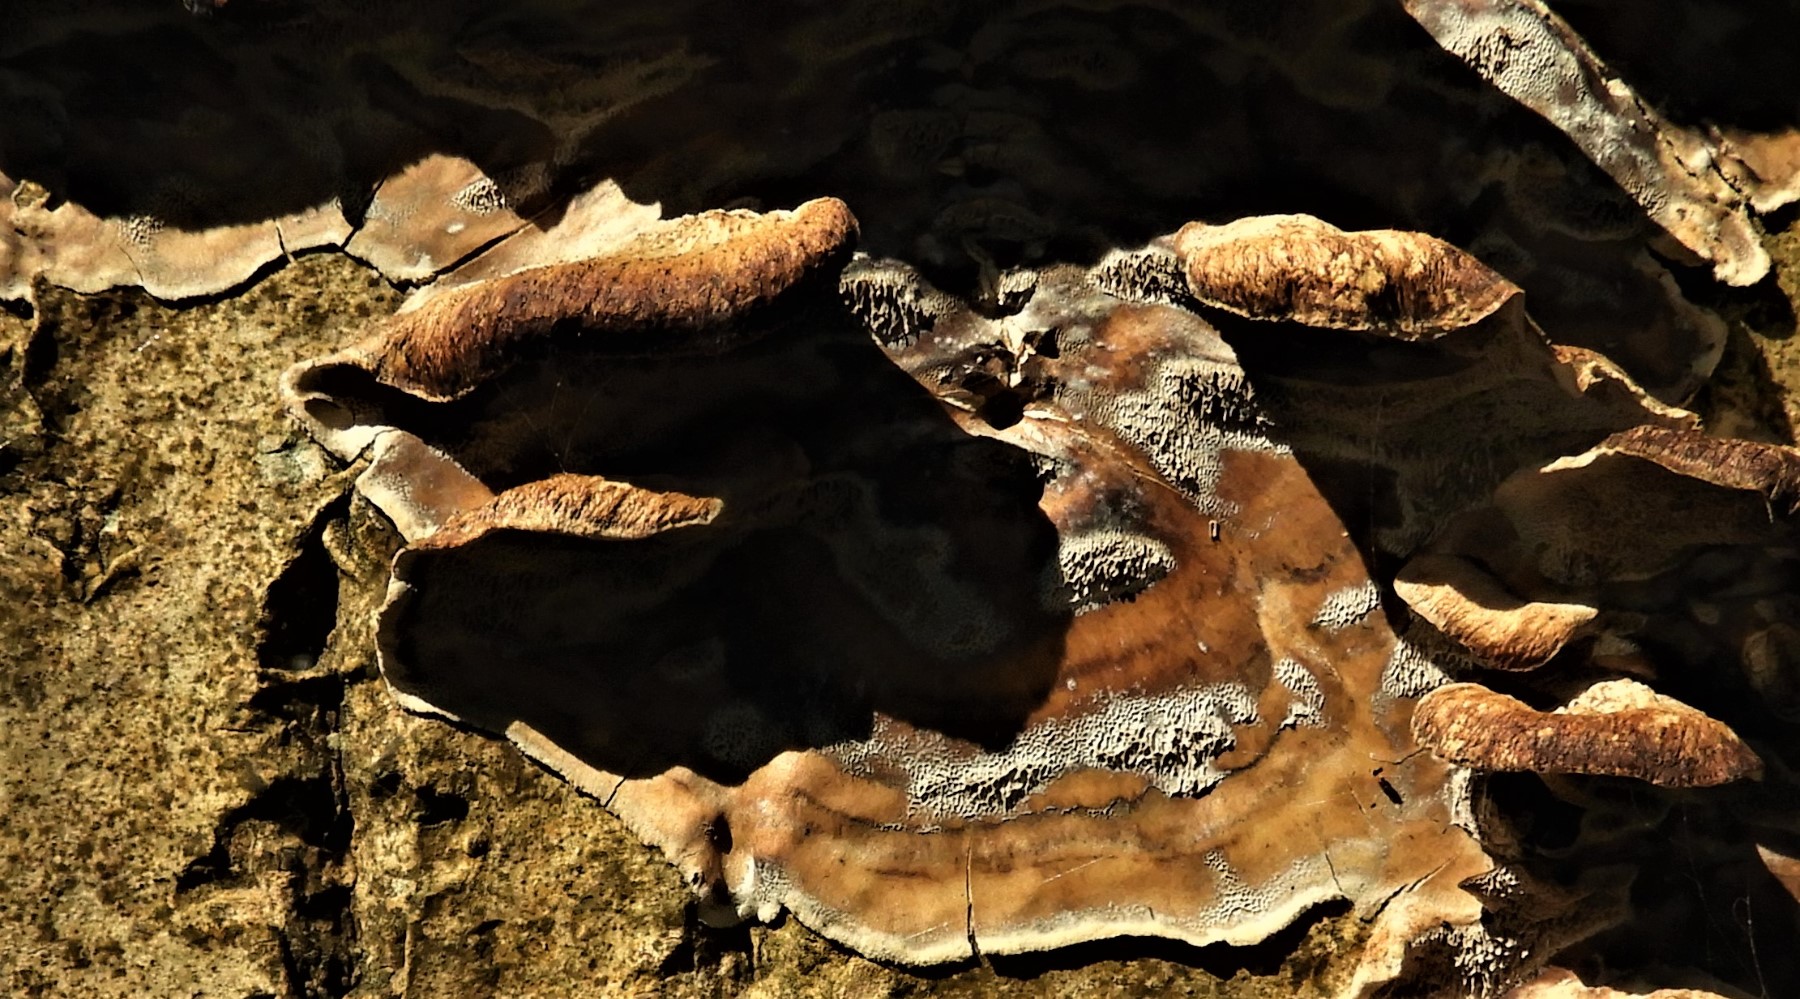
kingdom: Fungi
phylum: Basidiomycota
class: Agaricomycetes
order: Polyporales
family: Phanerochaetaceae
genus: Bjerkandera
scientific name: Bjerkandera adusta
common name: sveden sodporesvamp
